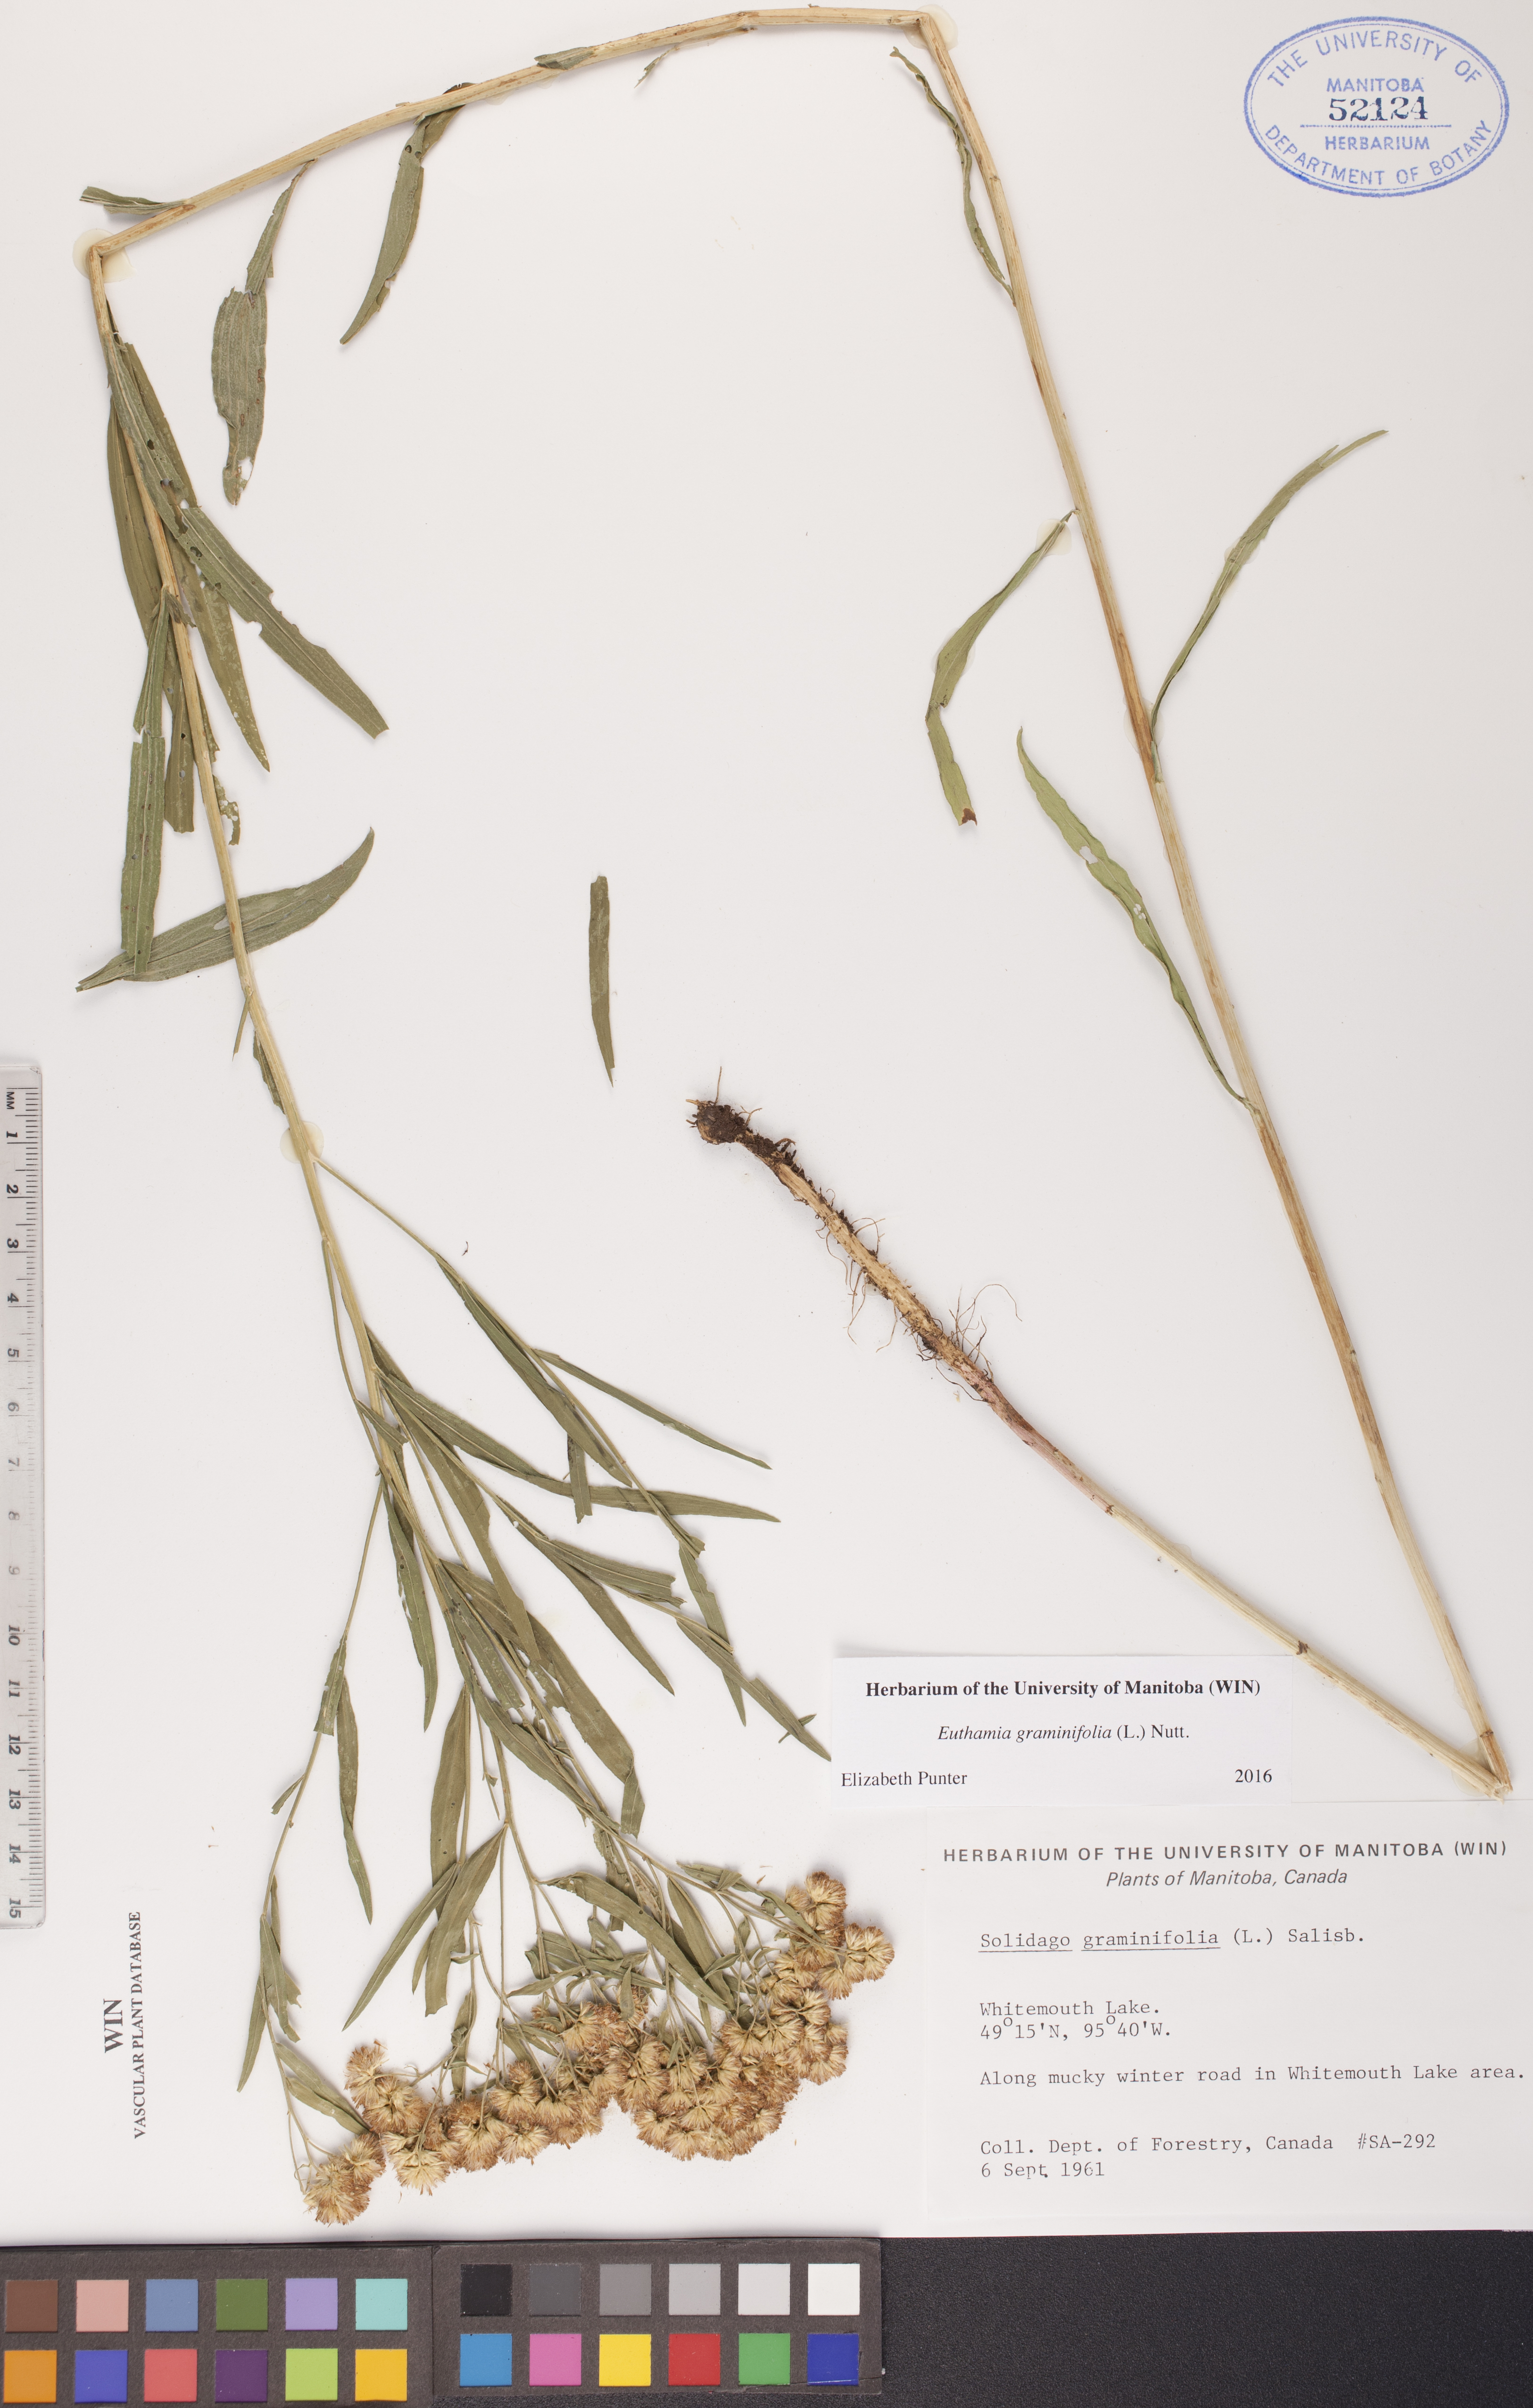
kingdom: Plantae
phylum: Tracheophyta
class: Magnoliopsida
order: Asterales
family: Asteraceae
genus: Euthamia
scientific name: Euthamia graminifolia
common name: Common goldentop
